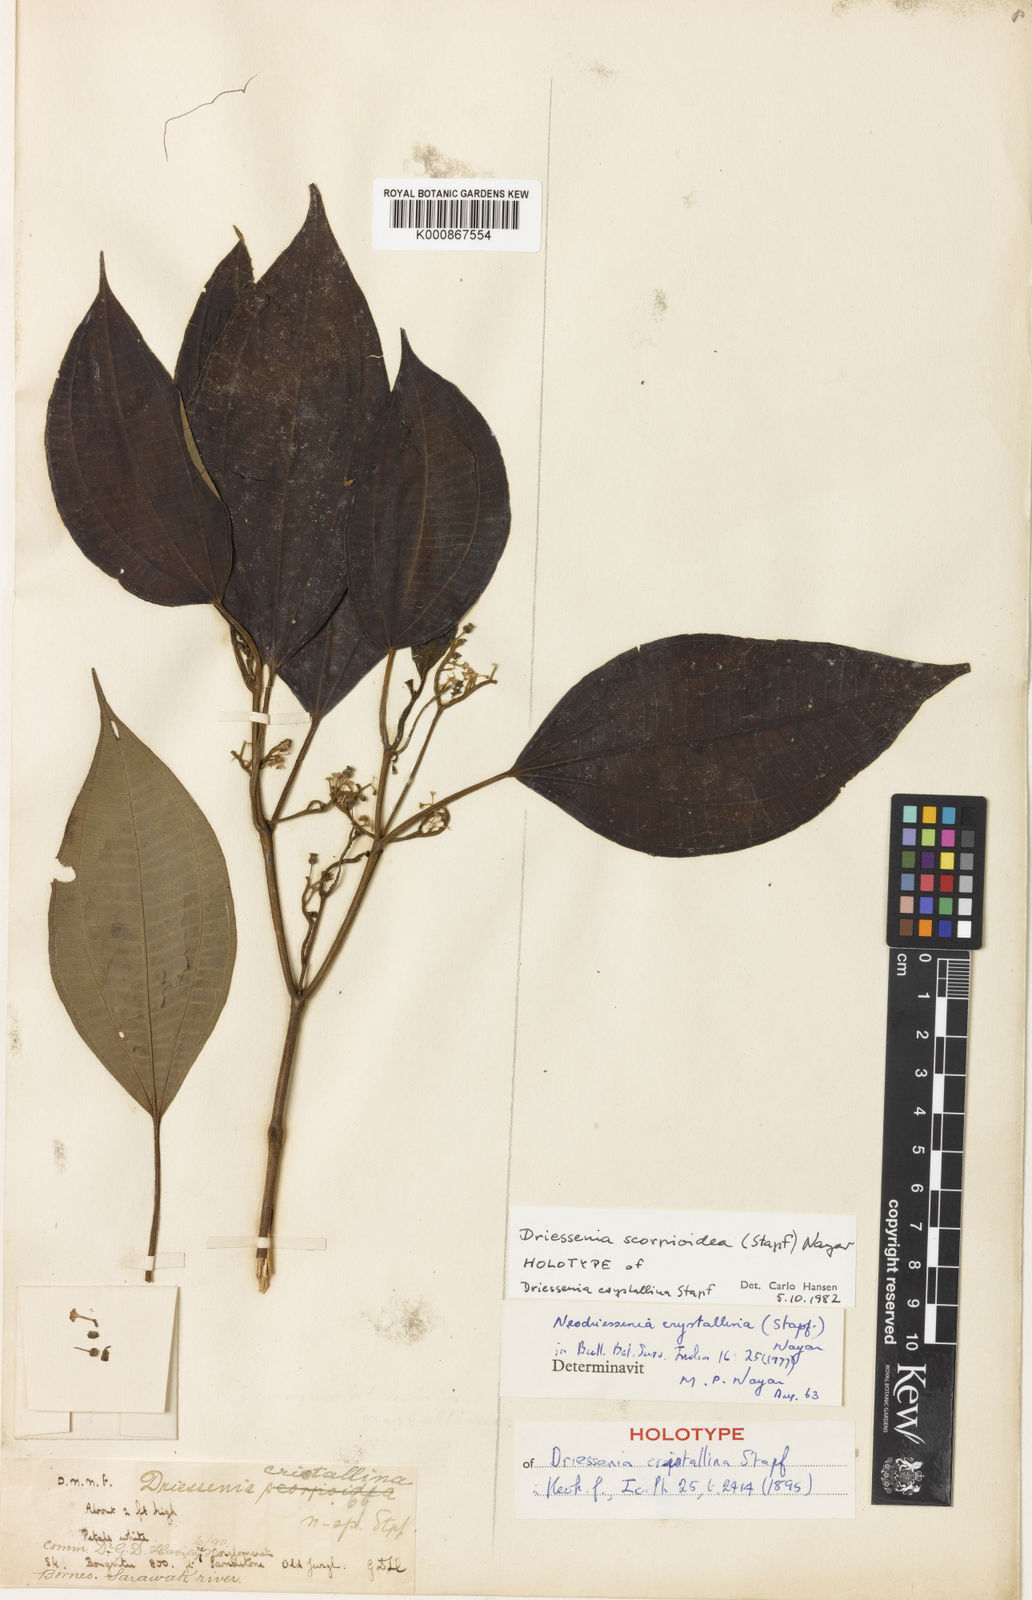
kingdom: Plantae
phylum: Tracheophyta
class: Magnoliopsida
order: Myrtales
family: Melastomataceae
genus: Neodriessenia
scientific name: Neodriessenia scorpioidea
